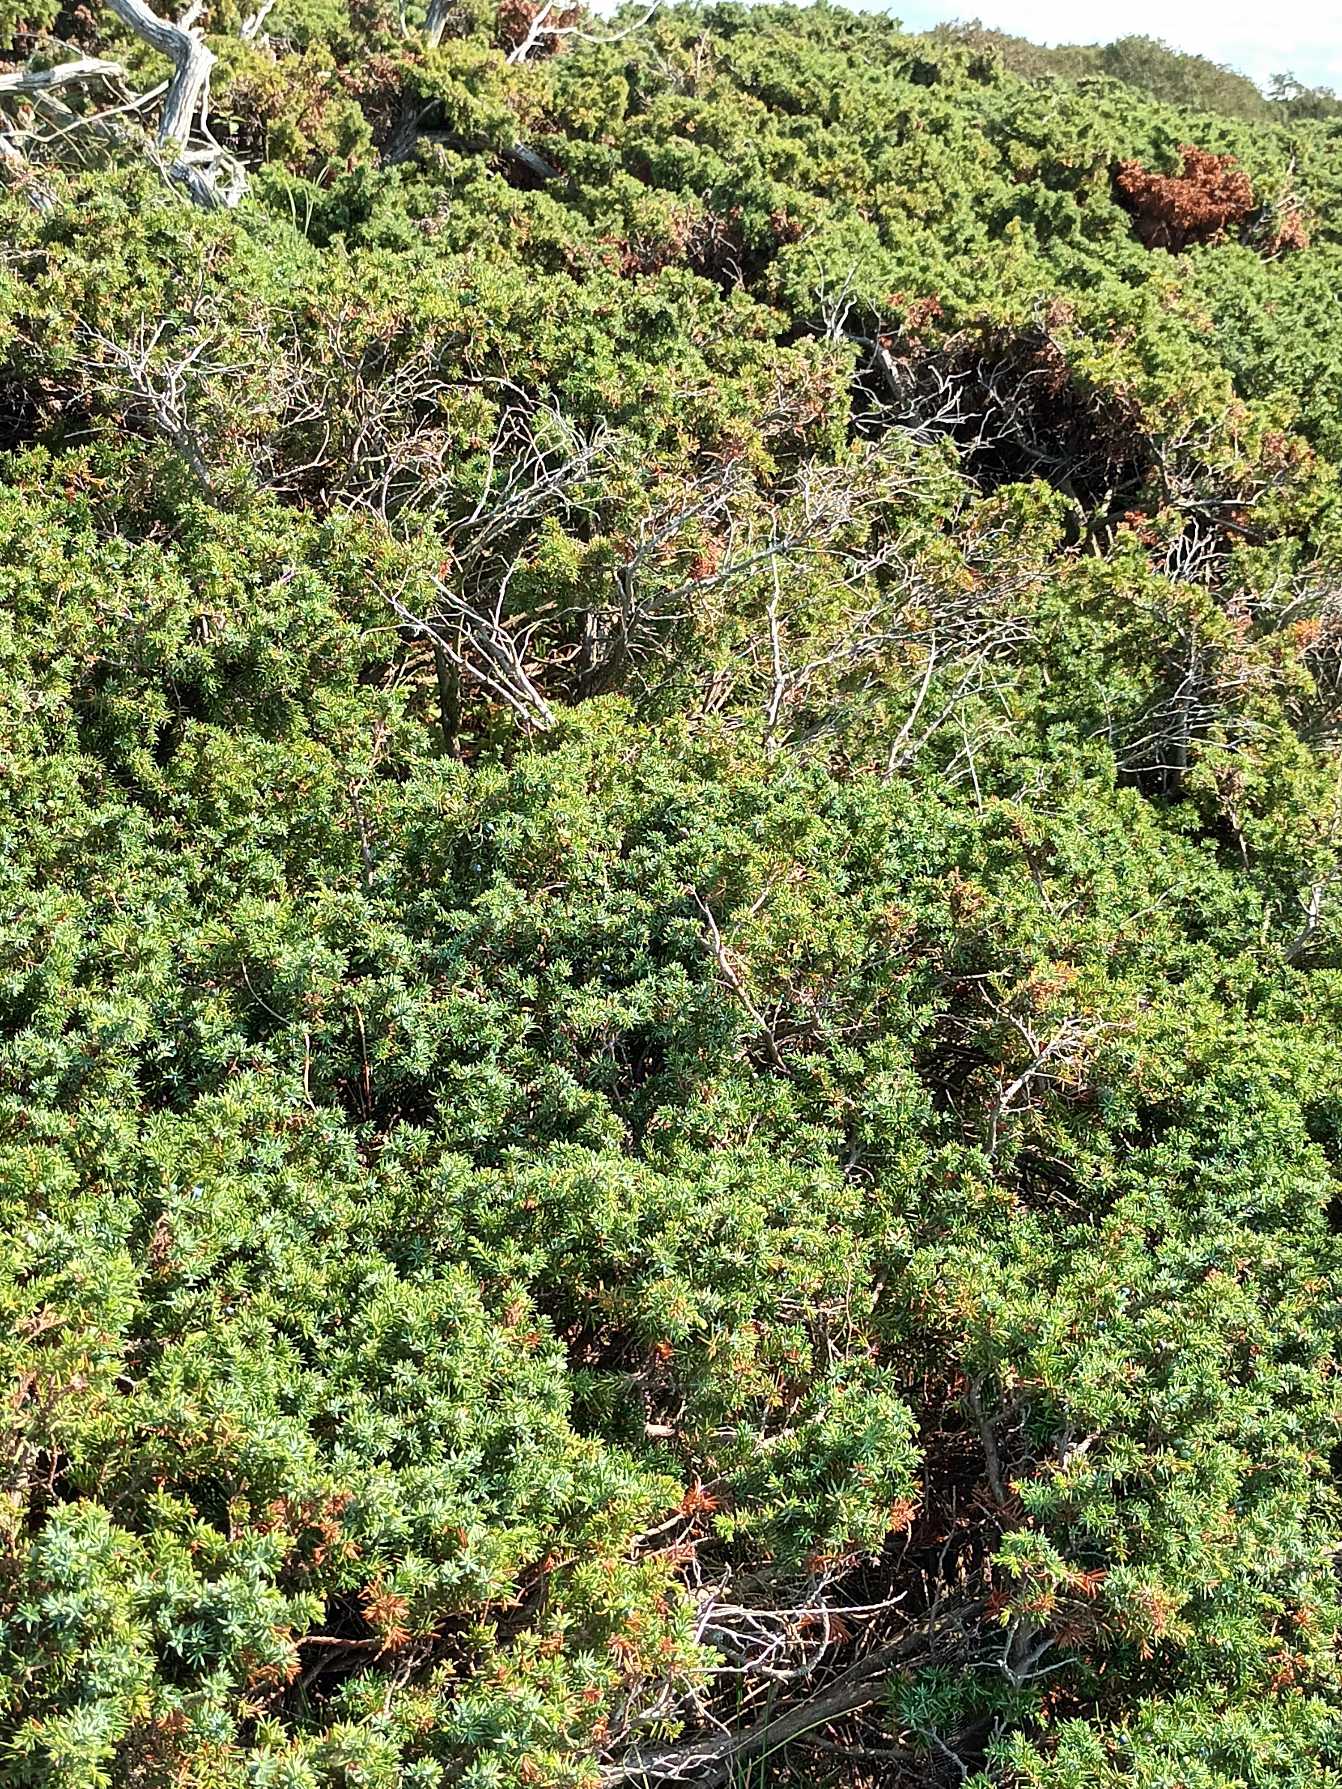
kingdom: Plantae
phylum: Tracheophyta
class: Pinopsida
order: Pinales
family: Cupressaceae
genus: Juniperus
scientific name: Juniperus communis
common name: Almindelig ene
